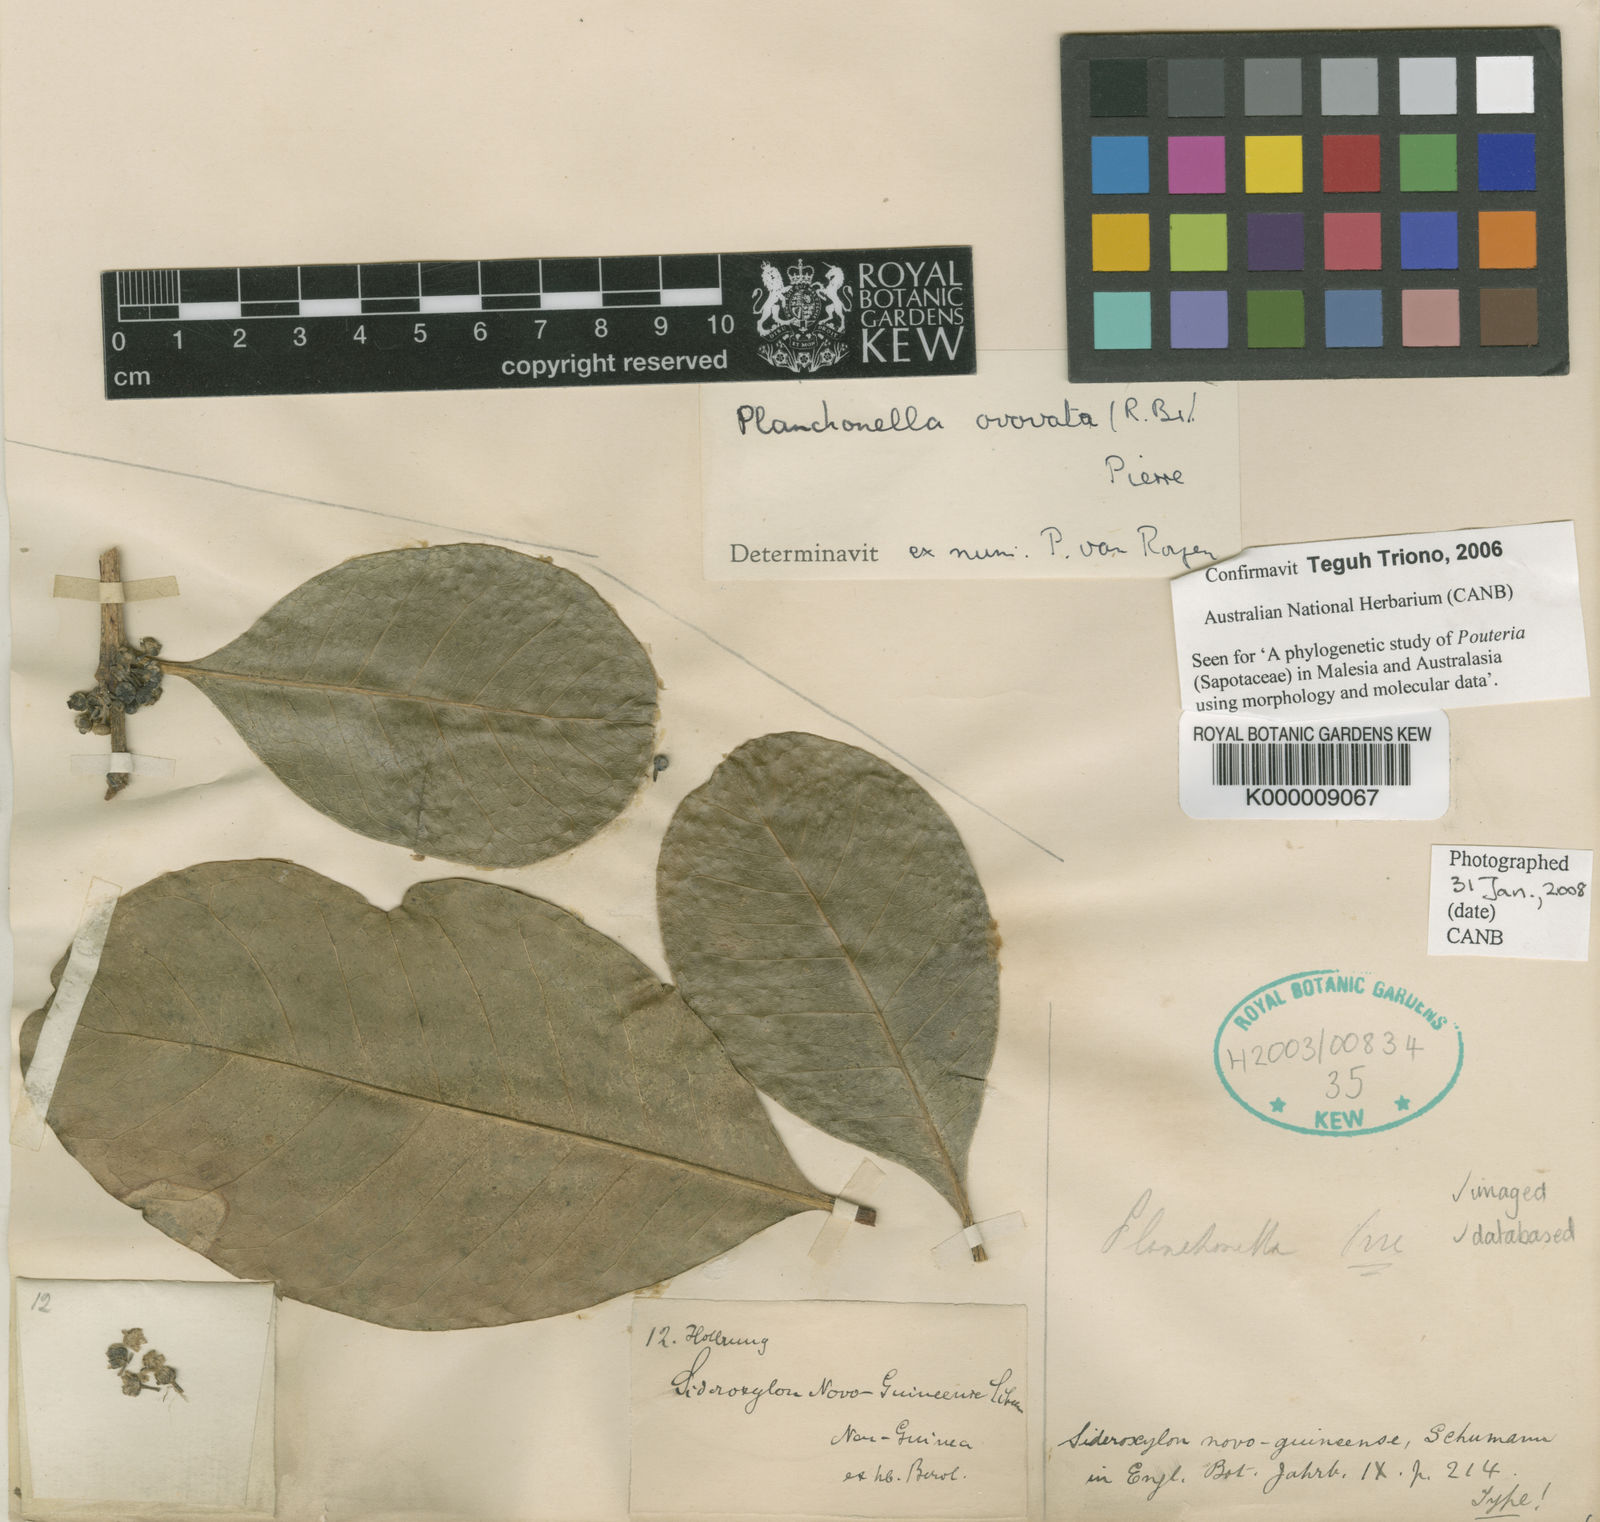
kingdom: Plantae
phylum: Tracheophyta
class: Magnoliopsida
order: Ericales
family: Sapotaceae
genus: Planchonella
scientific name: Planchonella obovata
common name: Black-ash
